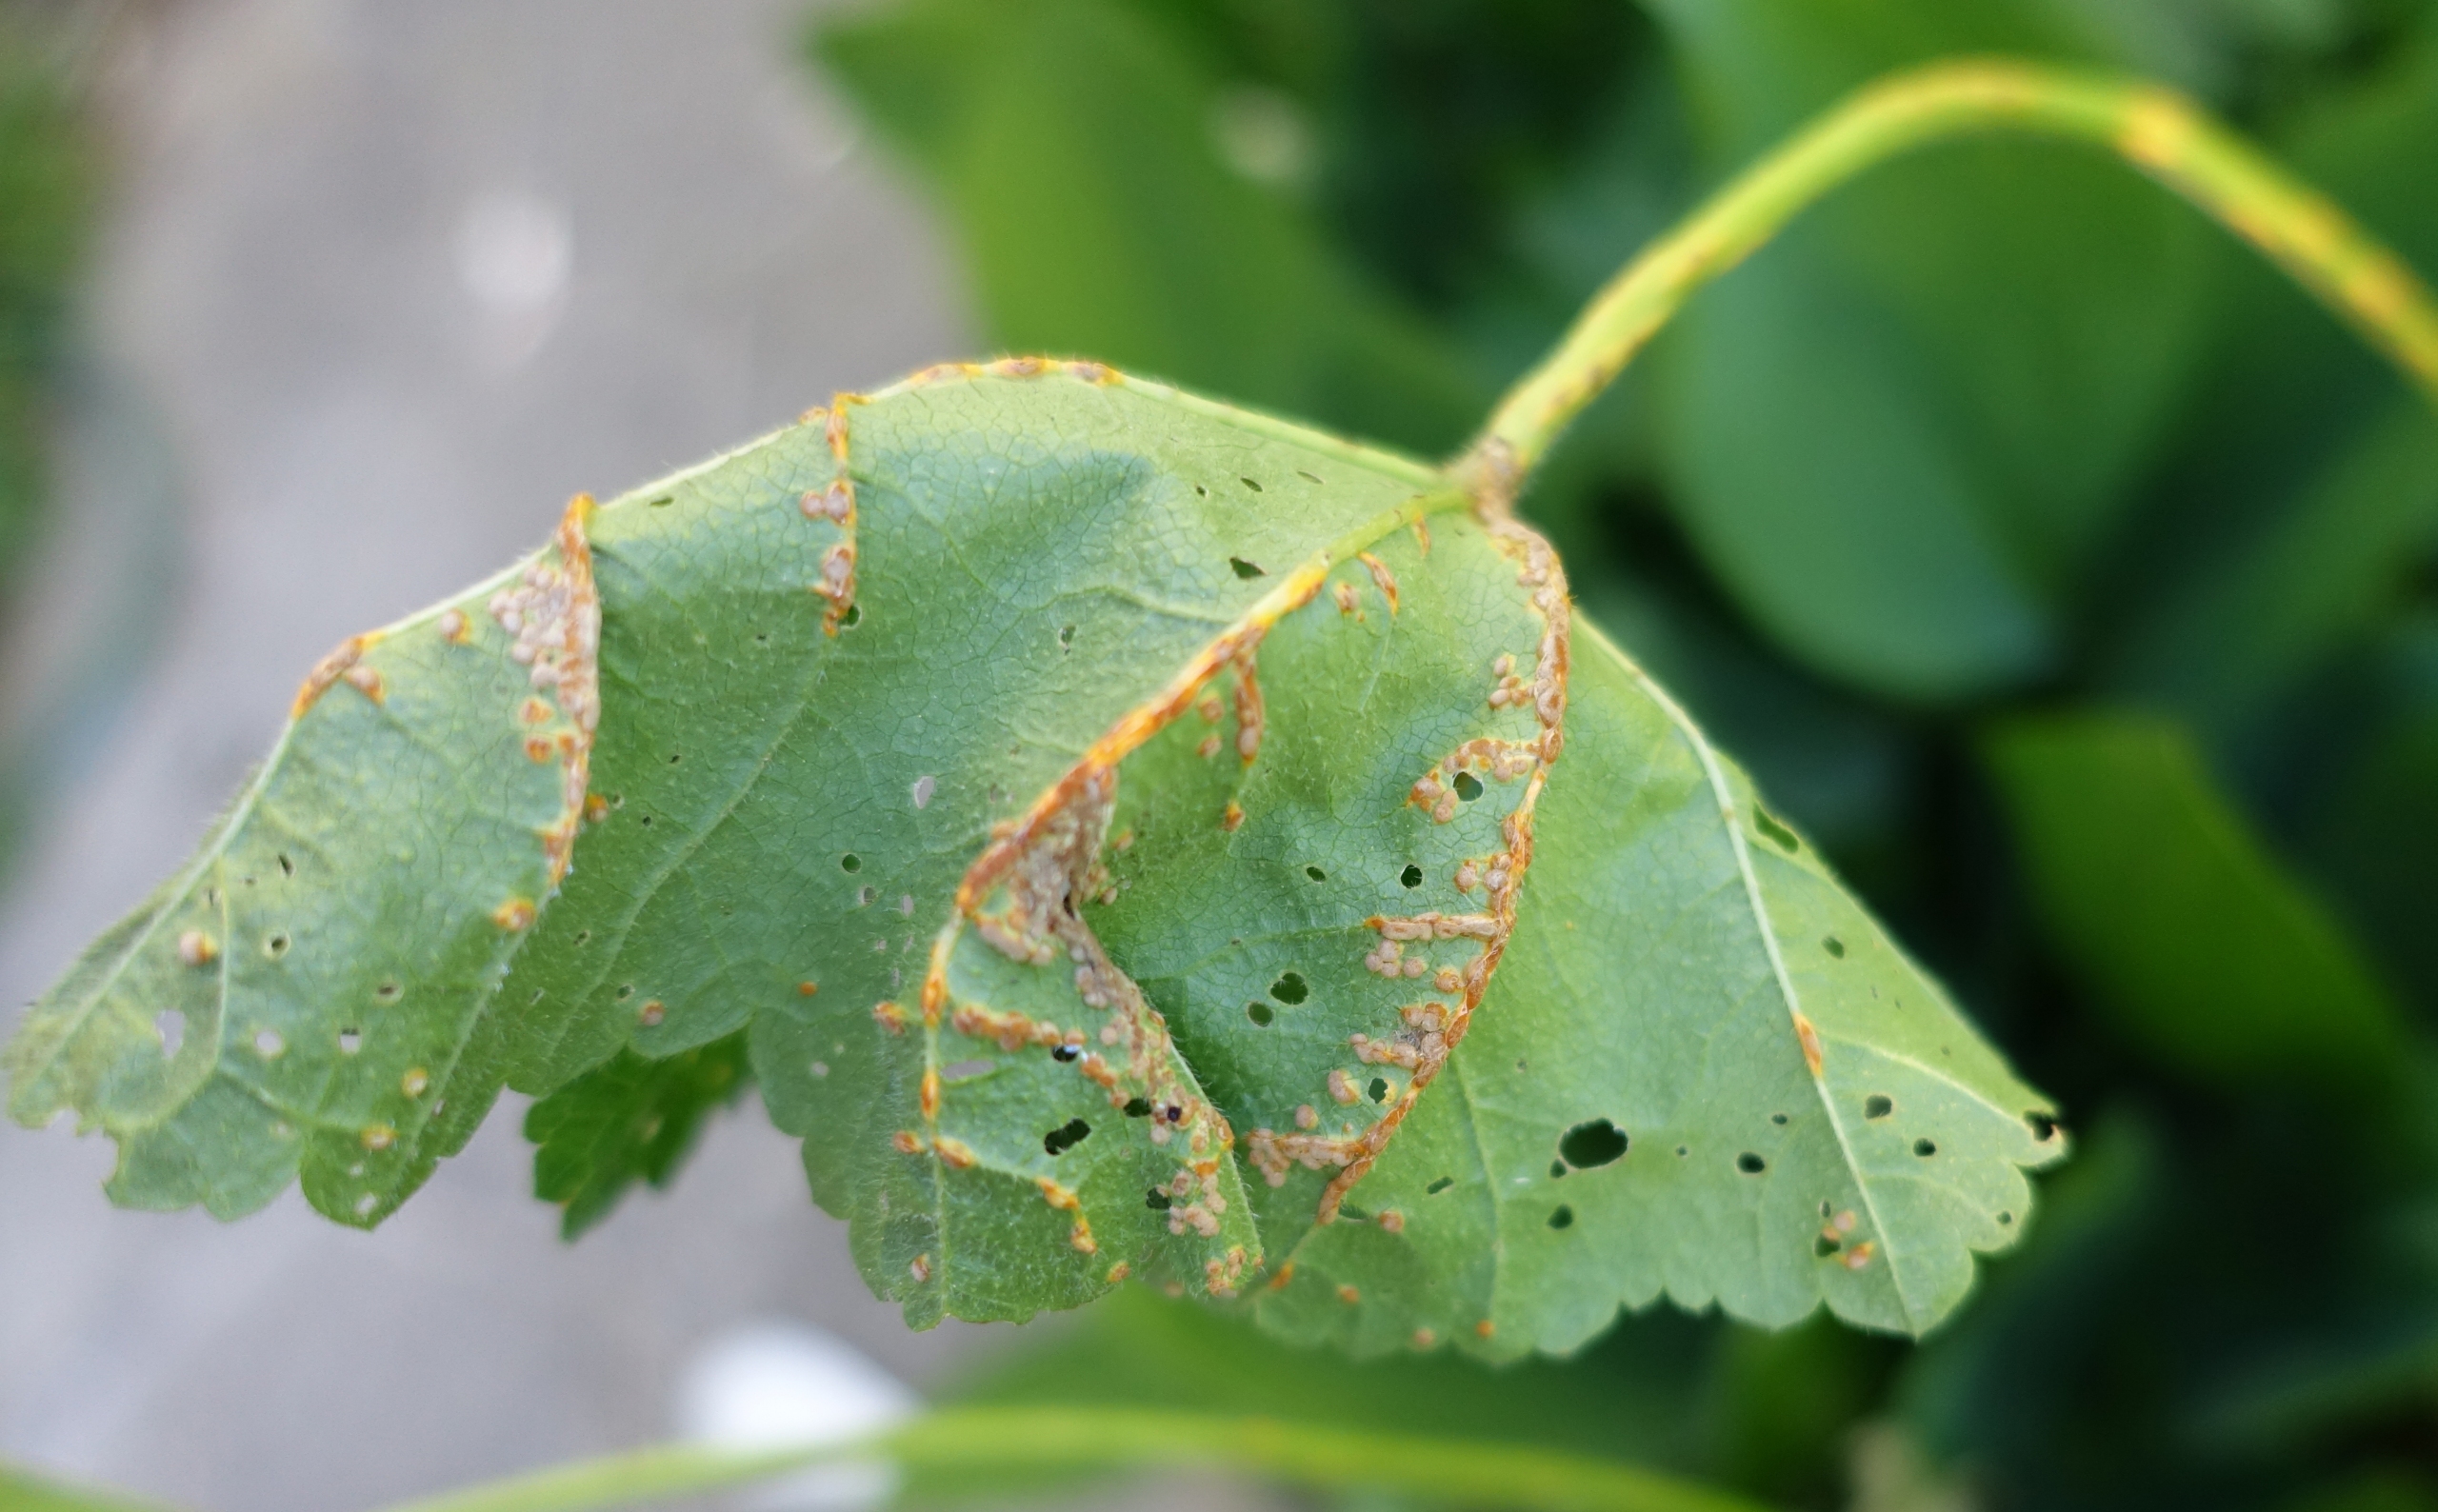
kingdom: Fungi
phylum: Basidiomycota
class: Pucciniomycetes
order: Pucciniales
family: Pucciniaceae
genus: Puccinia
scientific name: Puccinia malvacearum
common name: Stokrose-tvecellerust
